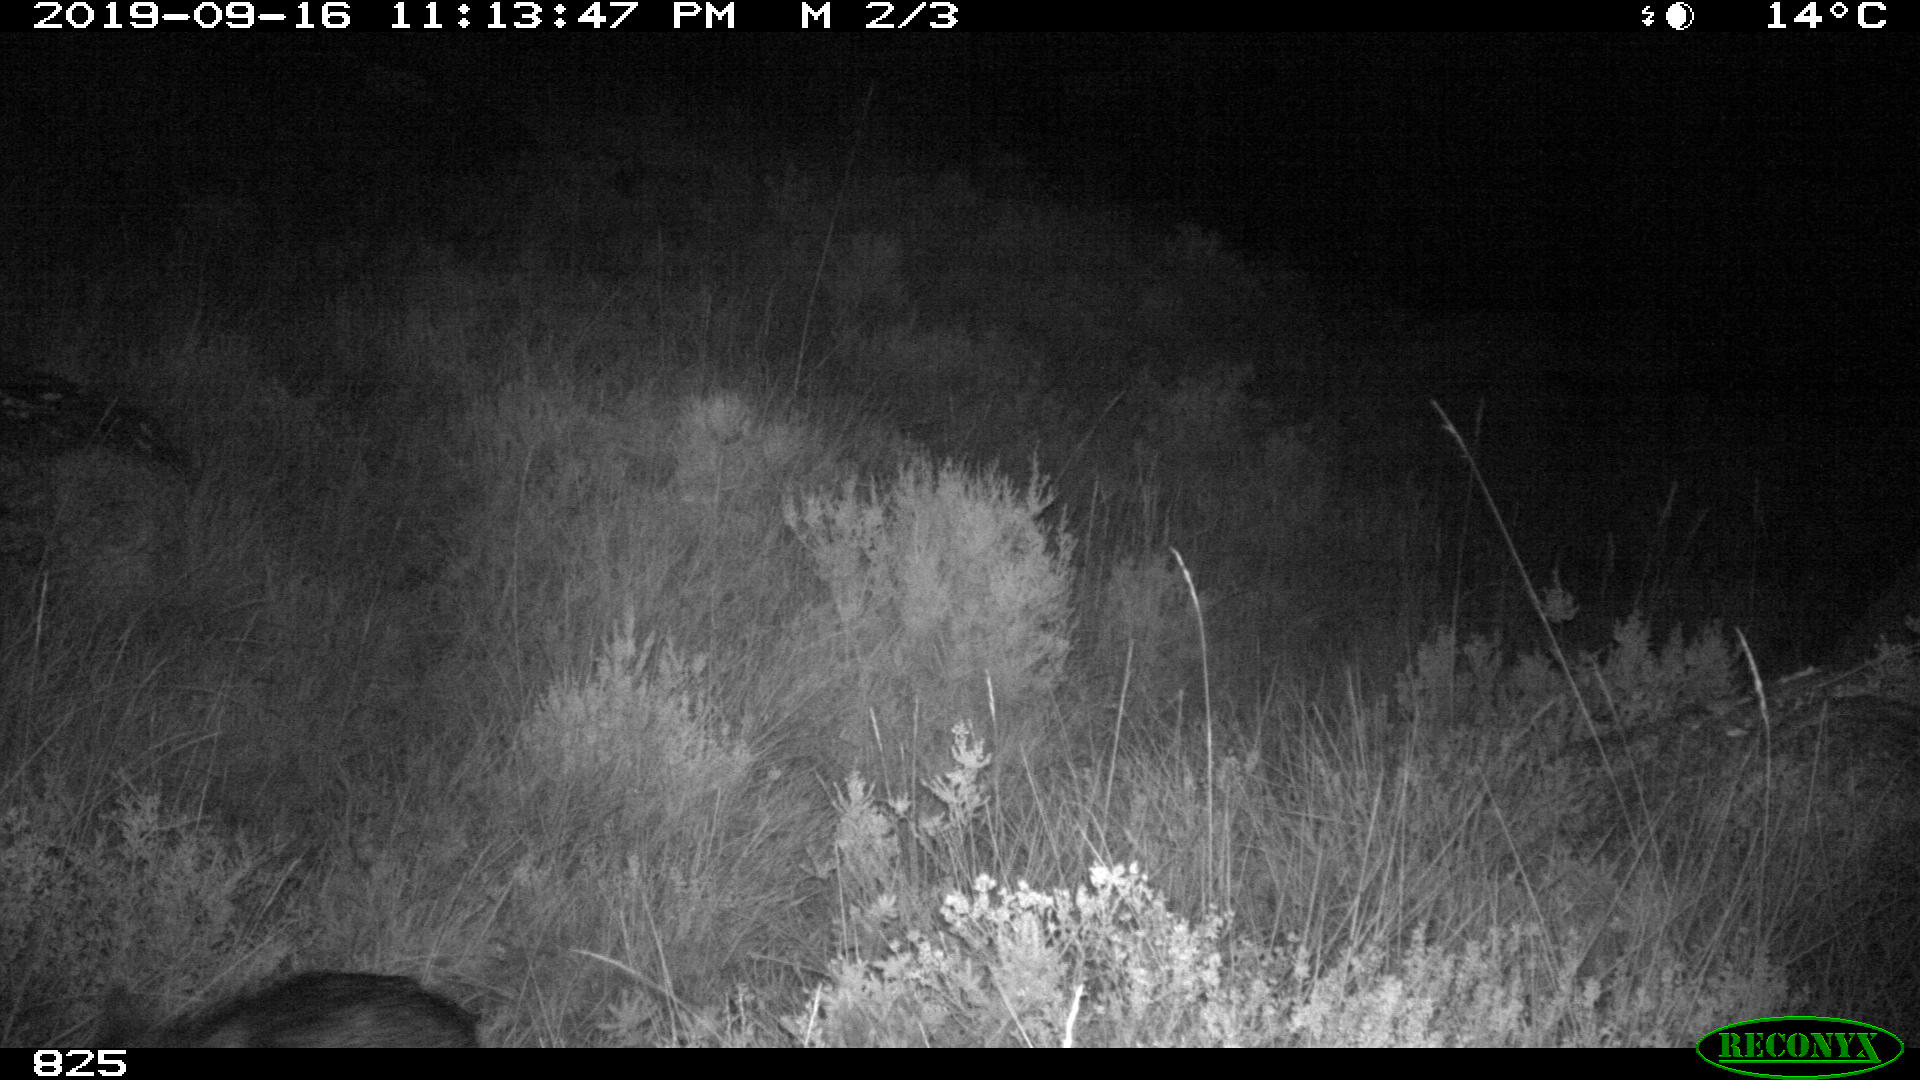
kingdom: Animalia
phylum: Chordata
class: Mammalia
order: Artiodactyla
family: Suidae
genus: Sus
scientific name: Sus scrofa
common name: Wild boar
